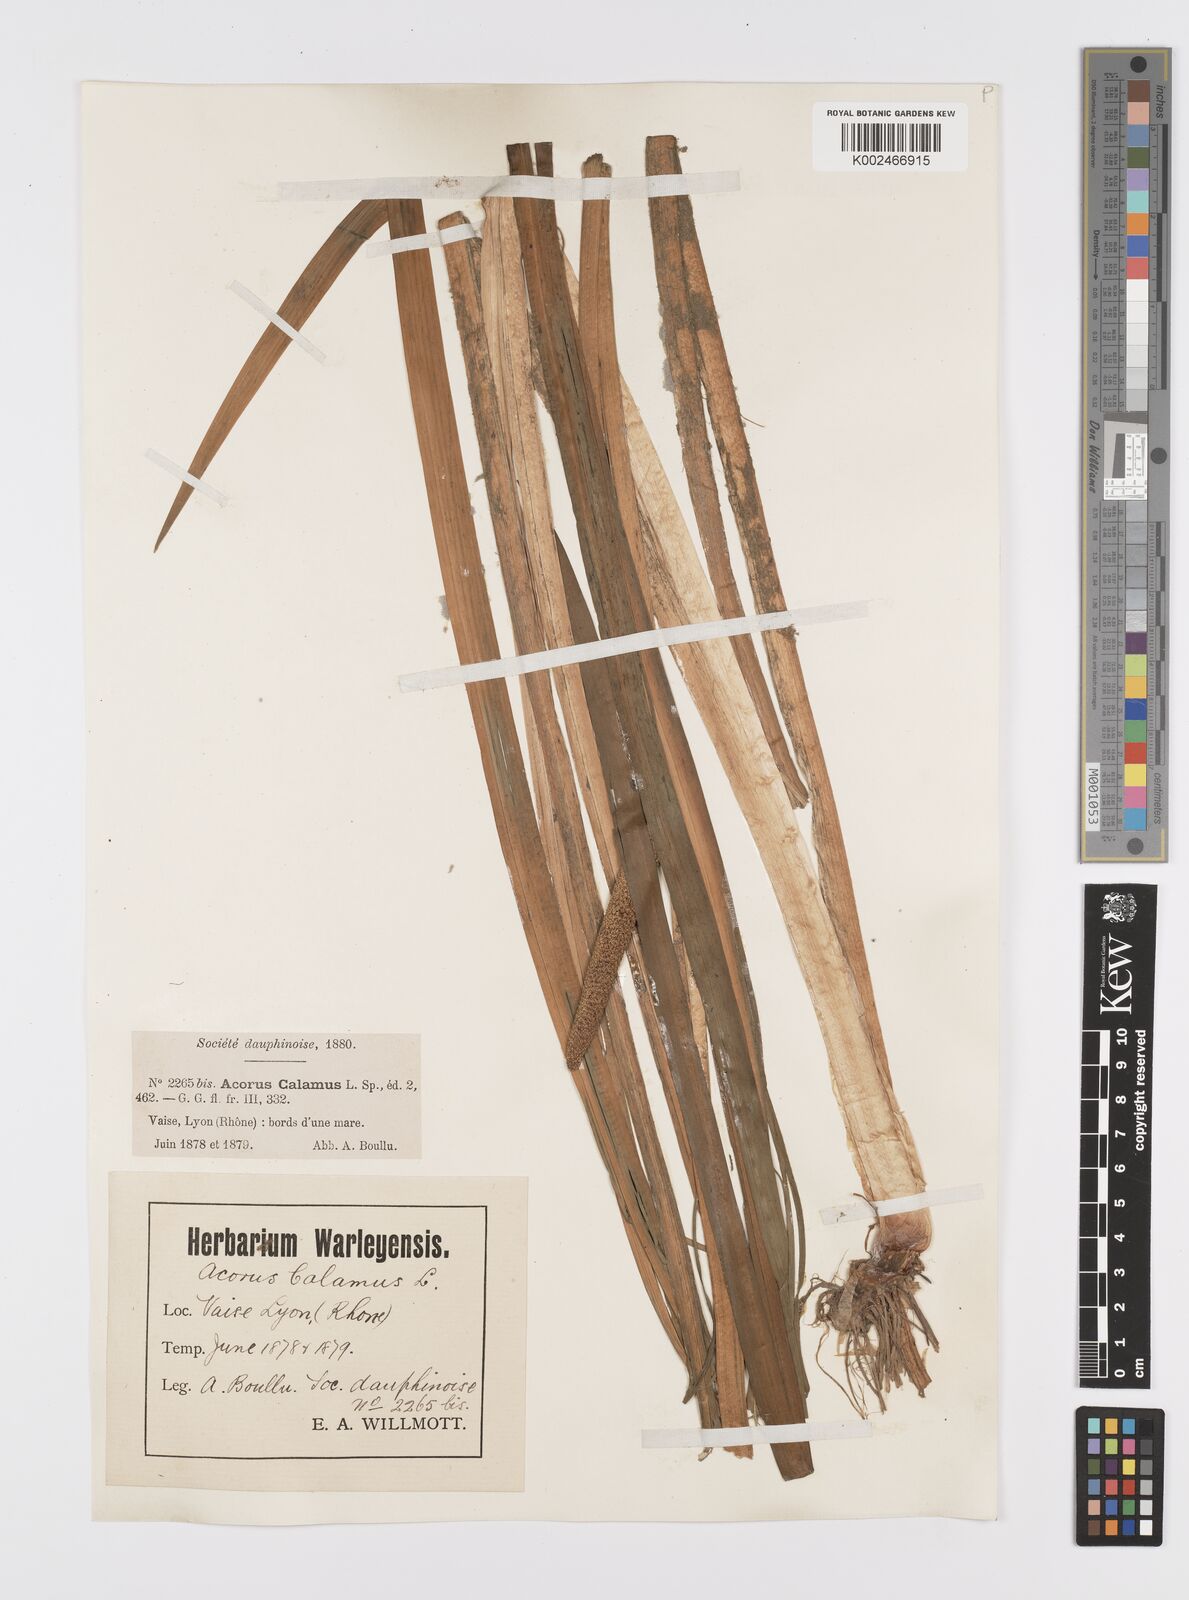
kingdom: Plantae
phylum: Tracheophyta
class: Liliopsida
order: Acorales
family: Acoraceae
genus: Acorus
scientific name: Acorus calamus
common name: Sweet-flag
